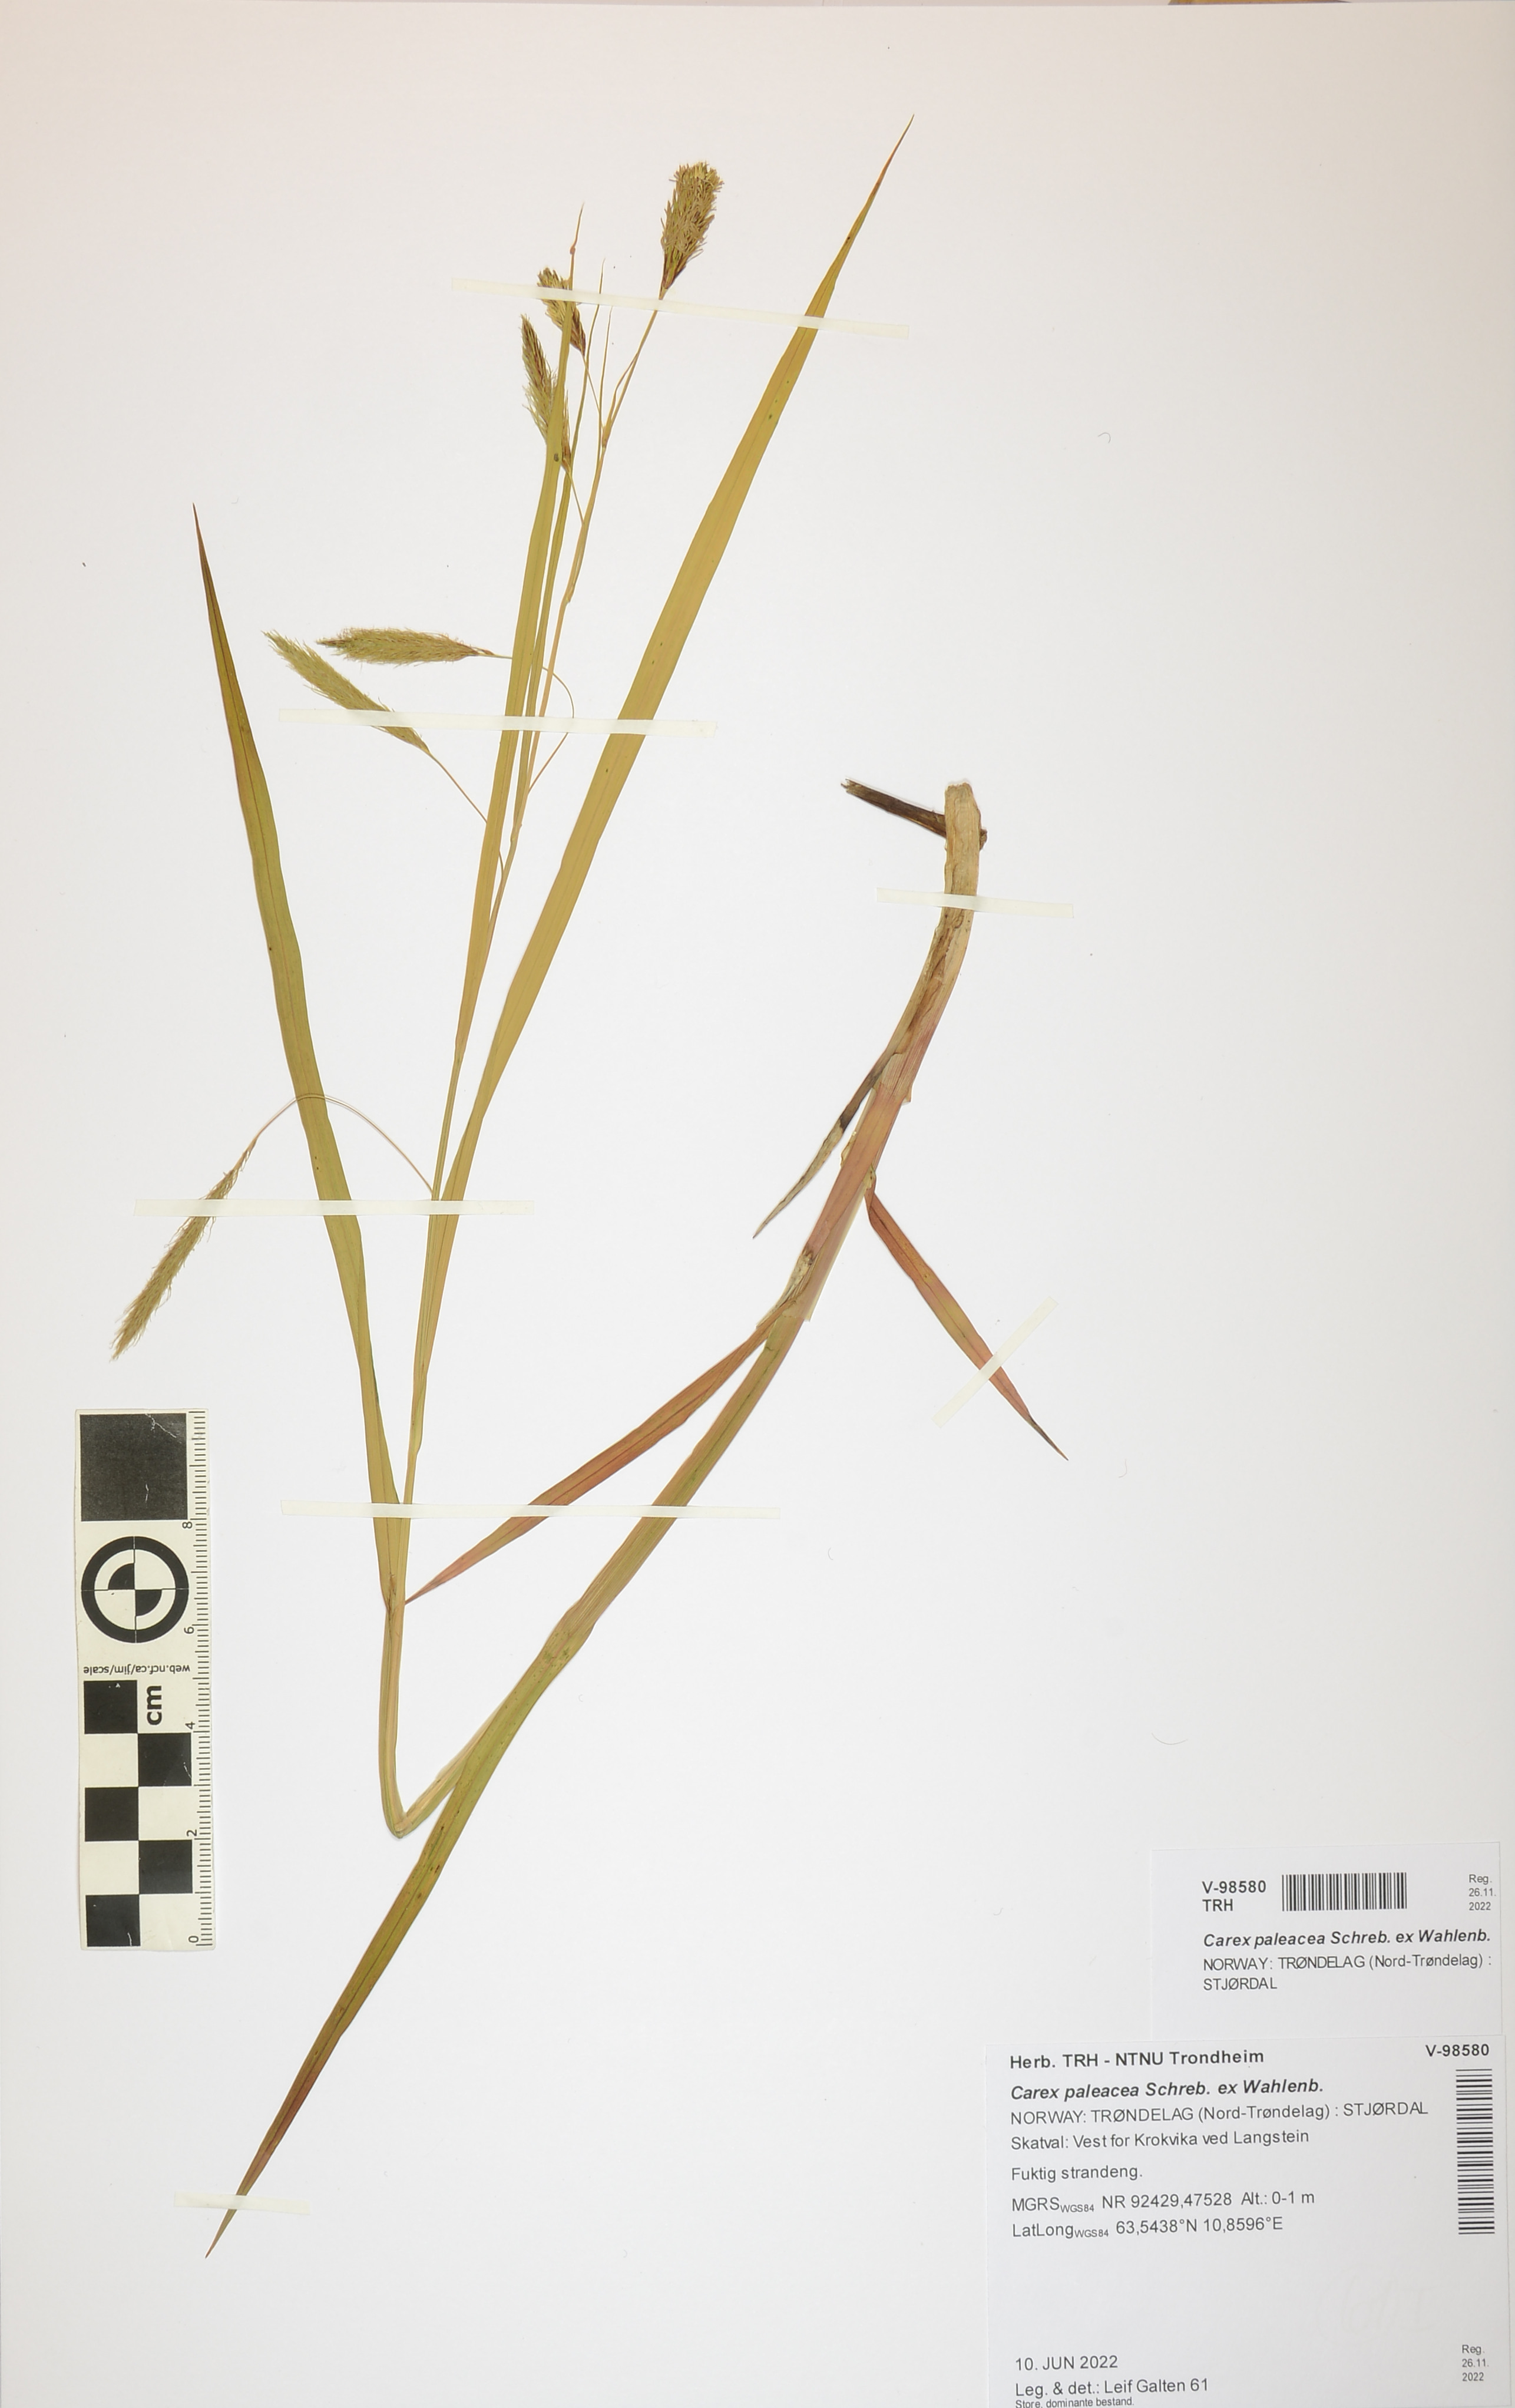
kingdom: Plantae
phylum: Tracheophyta
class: Liliopsida
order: Poales
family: Cyperaceae
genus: Carex
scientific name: Carex paleacea
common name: Chaffy sedge
